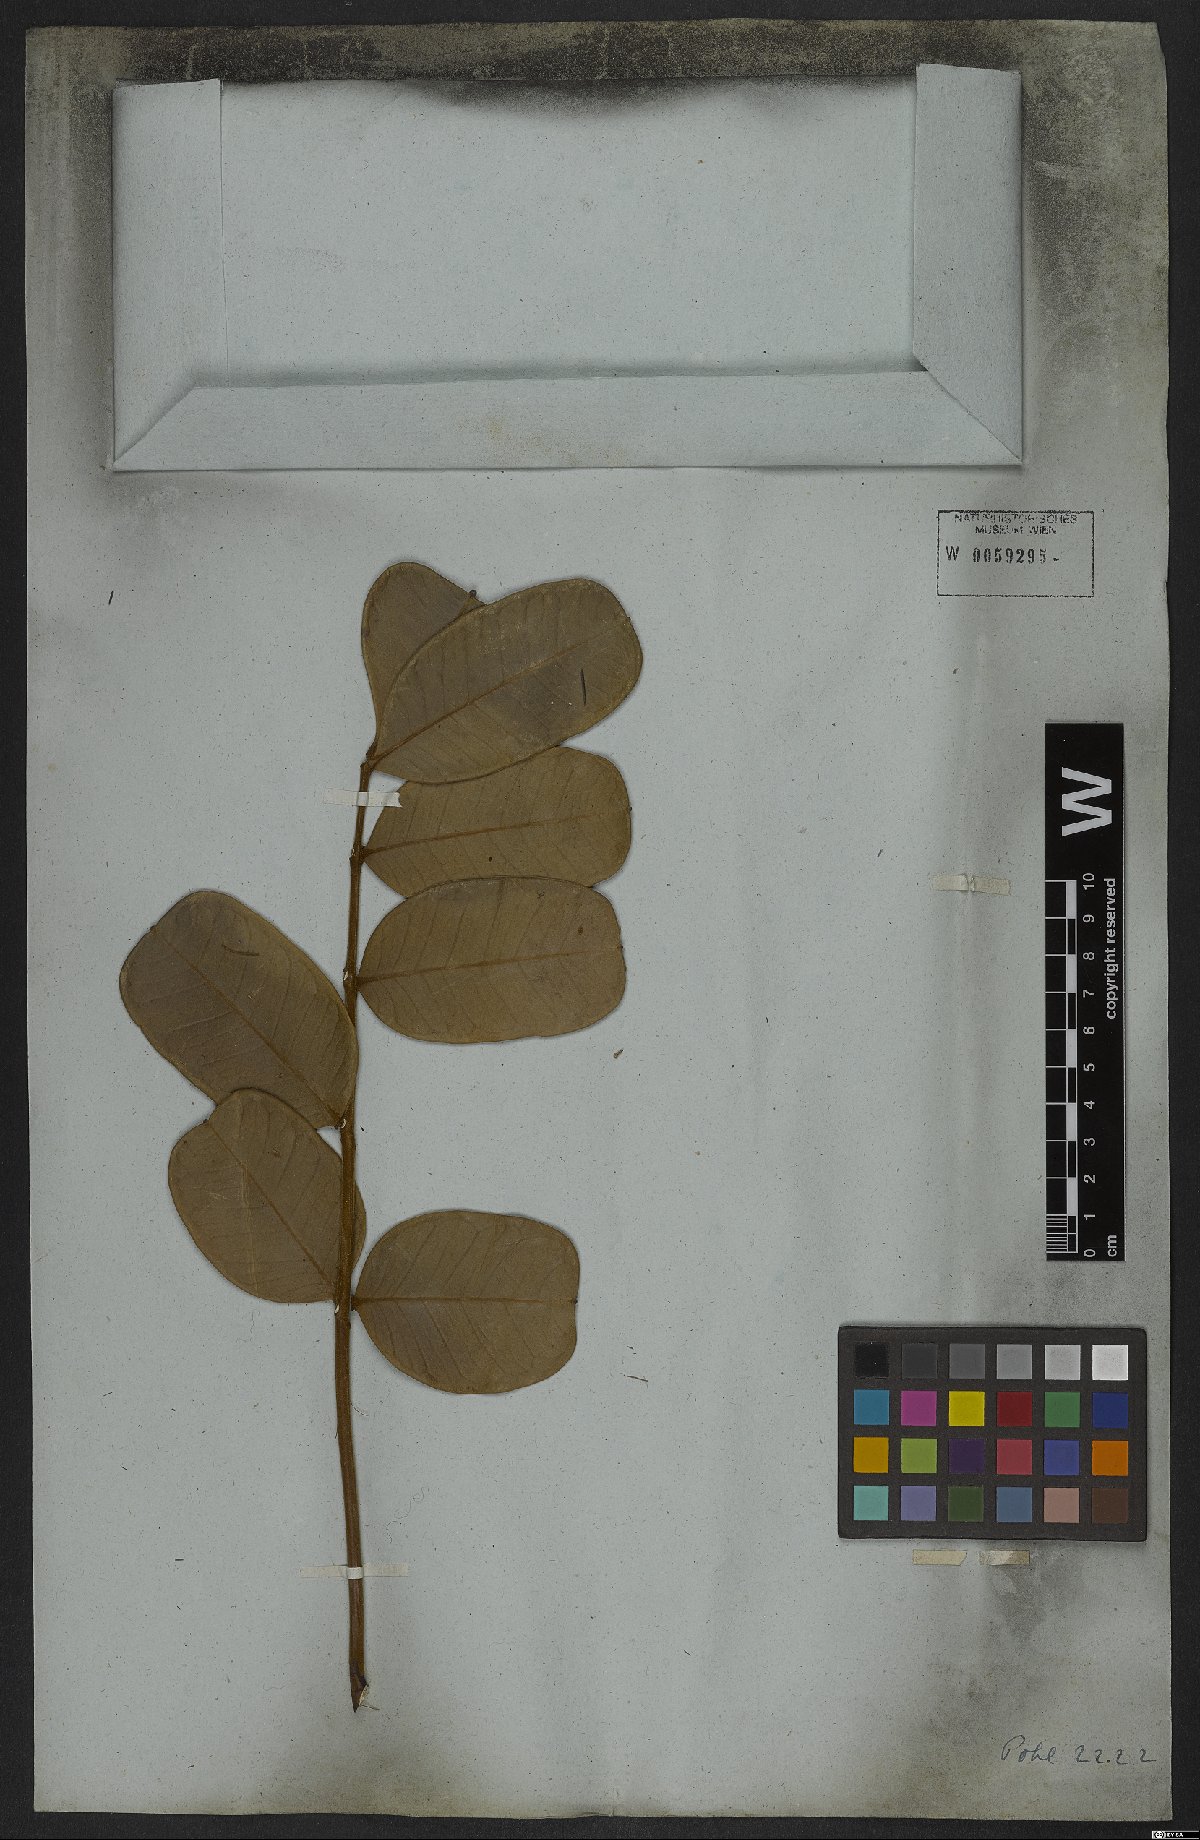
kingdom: Plantae
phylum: Tracheophyta
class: Magnoliopsida
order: Sapindales
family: Simaroubaceae
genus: Homalolepis
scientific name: Homalolepis trichilioides
